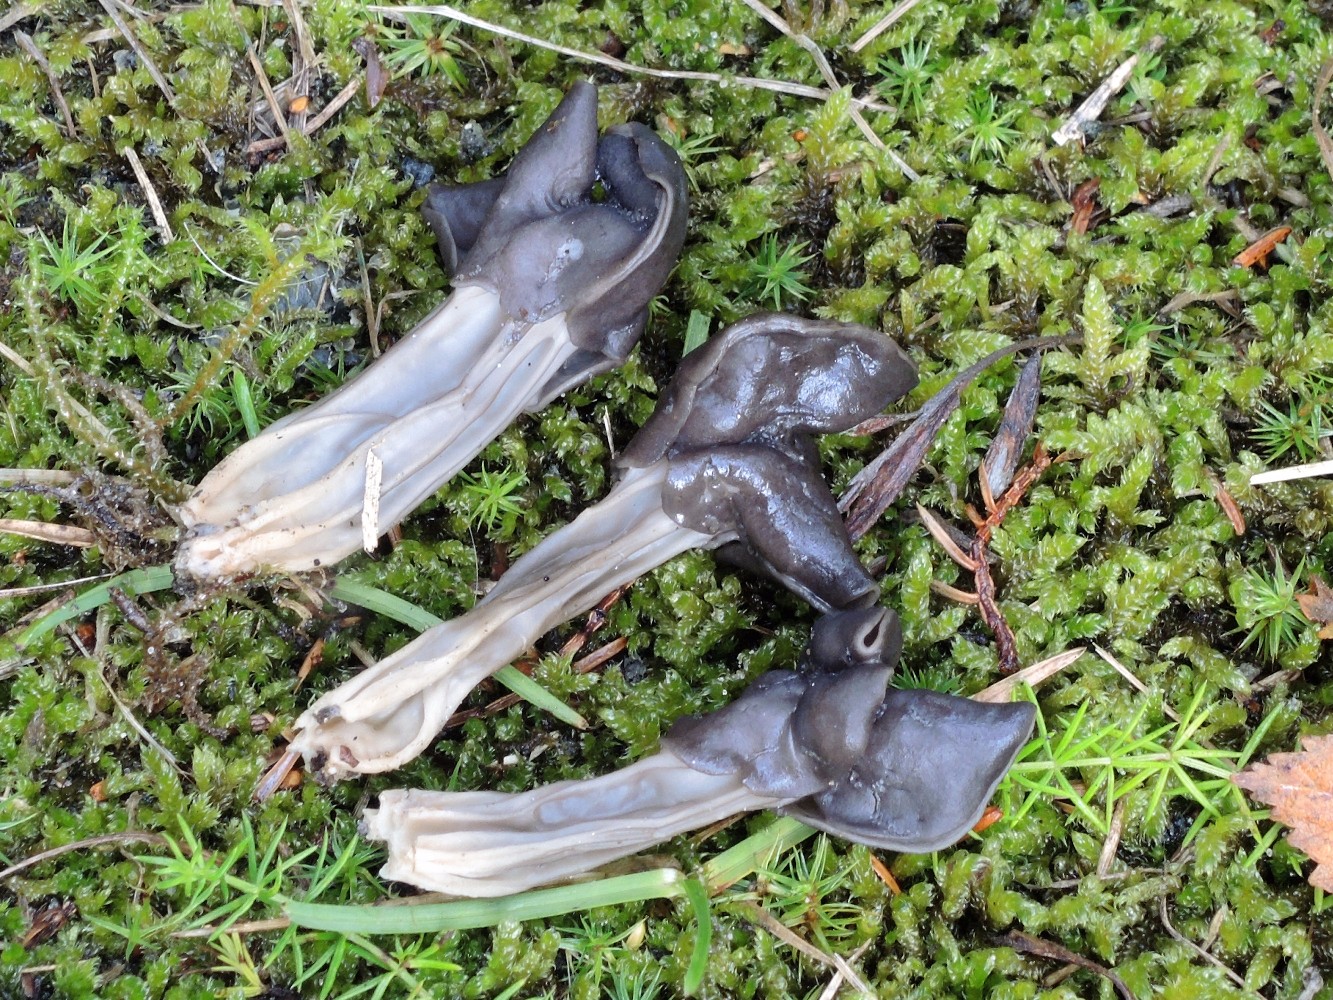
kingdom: Fungi
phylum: Ascomycota
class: Pezizomycetes
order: Pezizales
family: Helvellaceae
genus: Helvella
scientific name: Helvella lacunosa
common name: grubet foldhat
